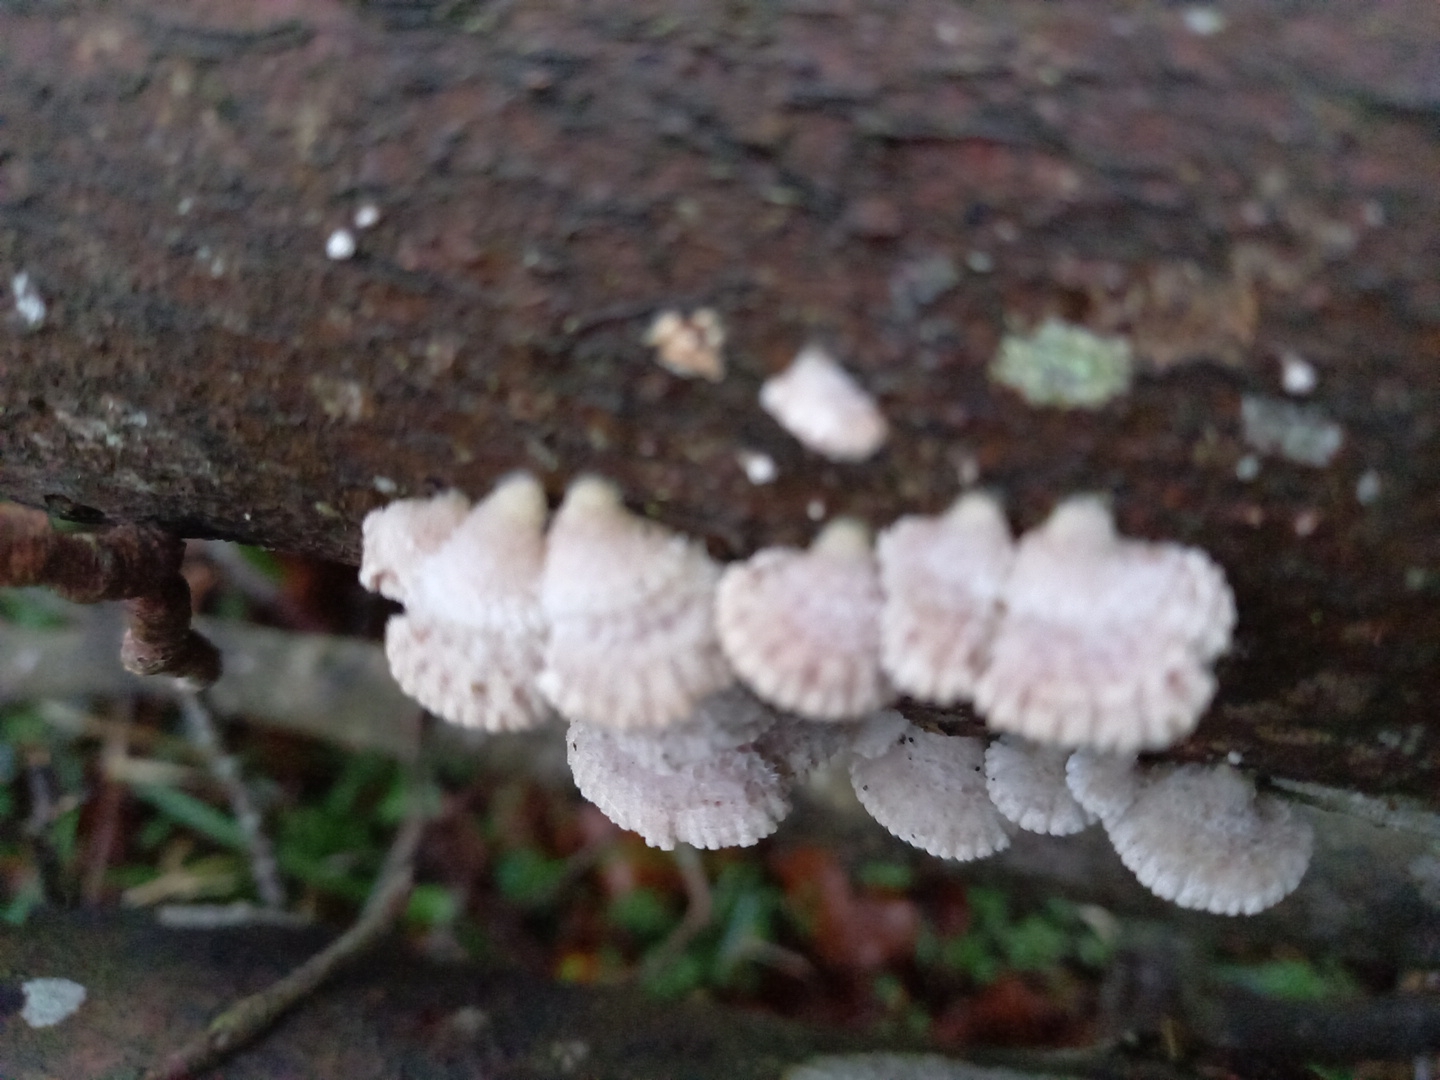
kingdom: Fungi
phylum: Basidiomycota
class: Agaricomycetes
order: Agaricales
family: Schizophyllaceae
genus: Schizophyllum
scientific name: Schizophyllum commune
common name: kløvblad
